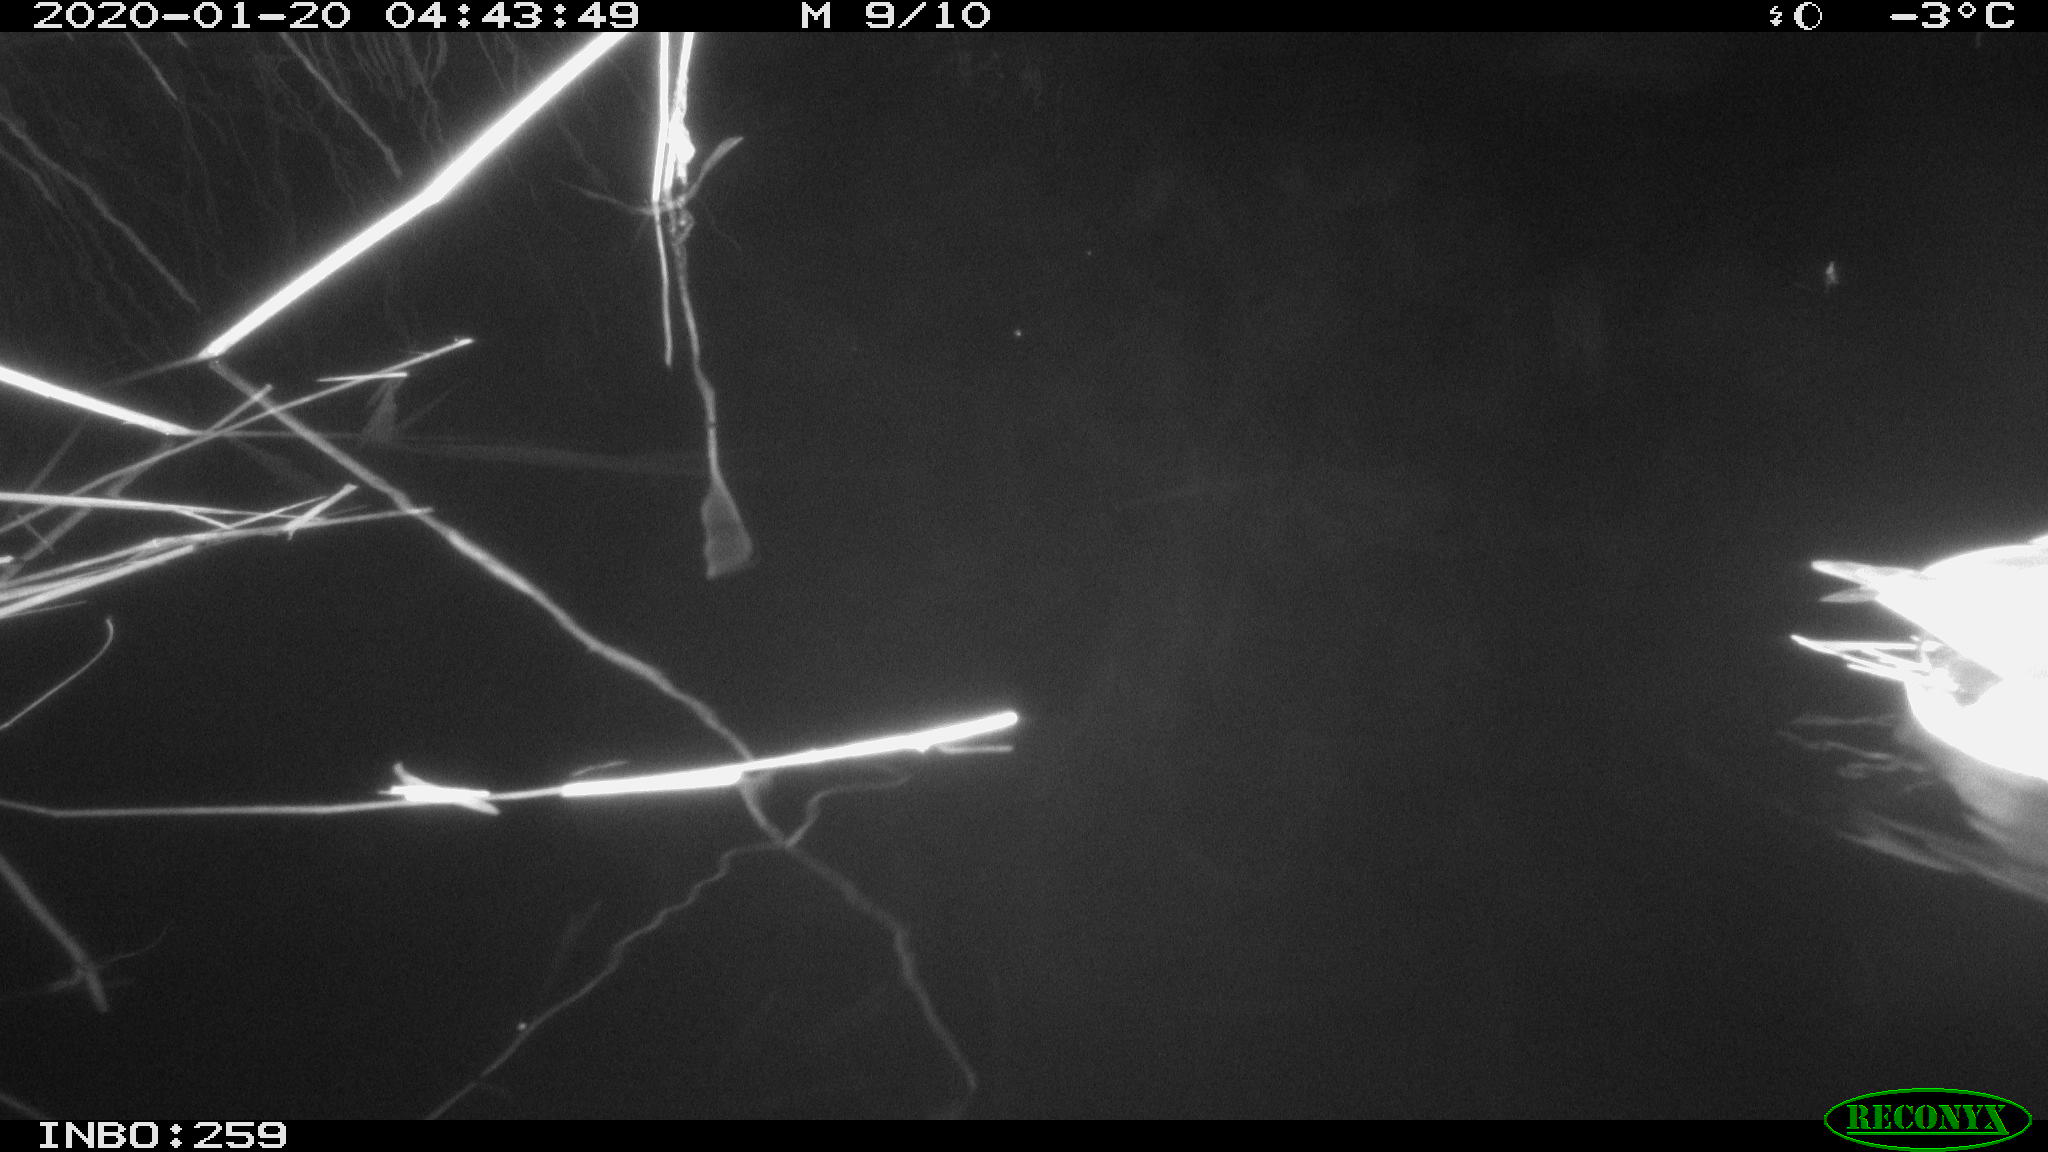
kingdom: Animalia
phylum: Chordata
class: Aves
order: Anseriformes
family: Anatidae
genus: Anas
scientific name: Anas platyrhynchos
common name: Mallard
